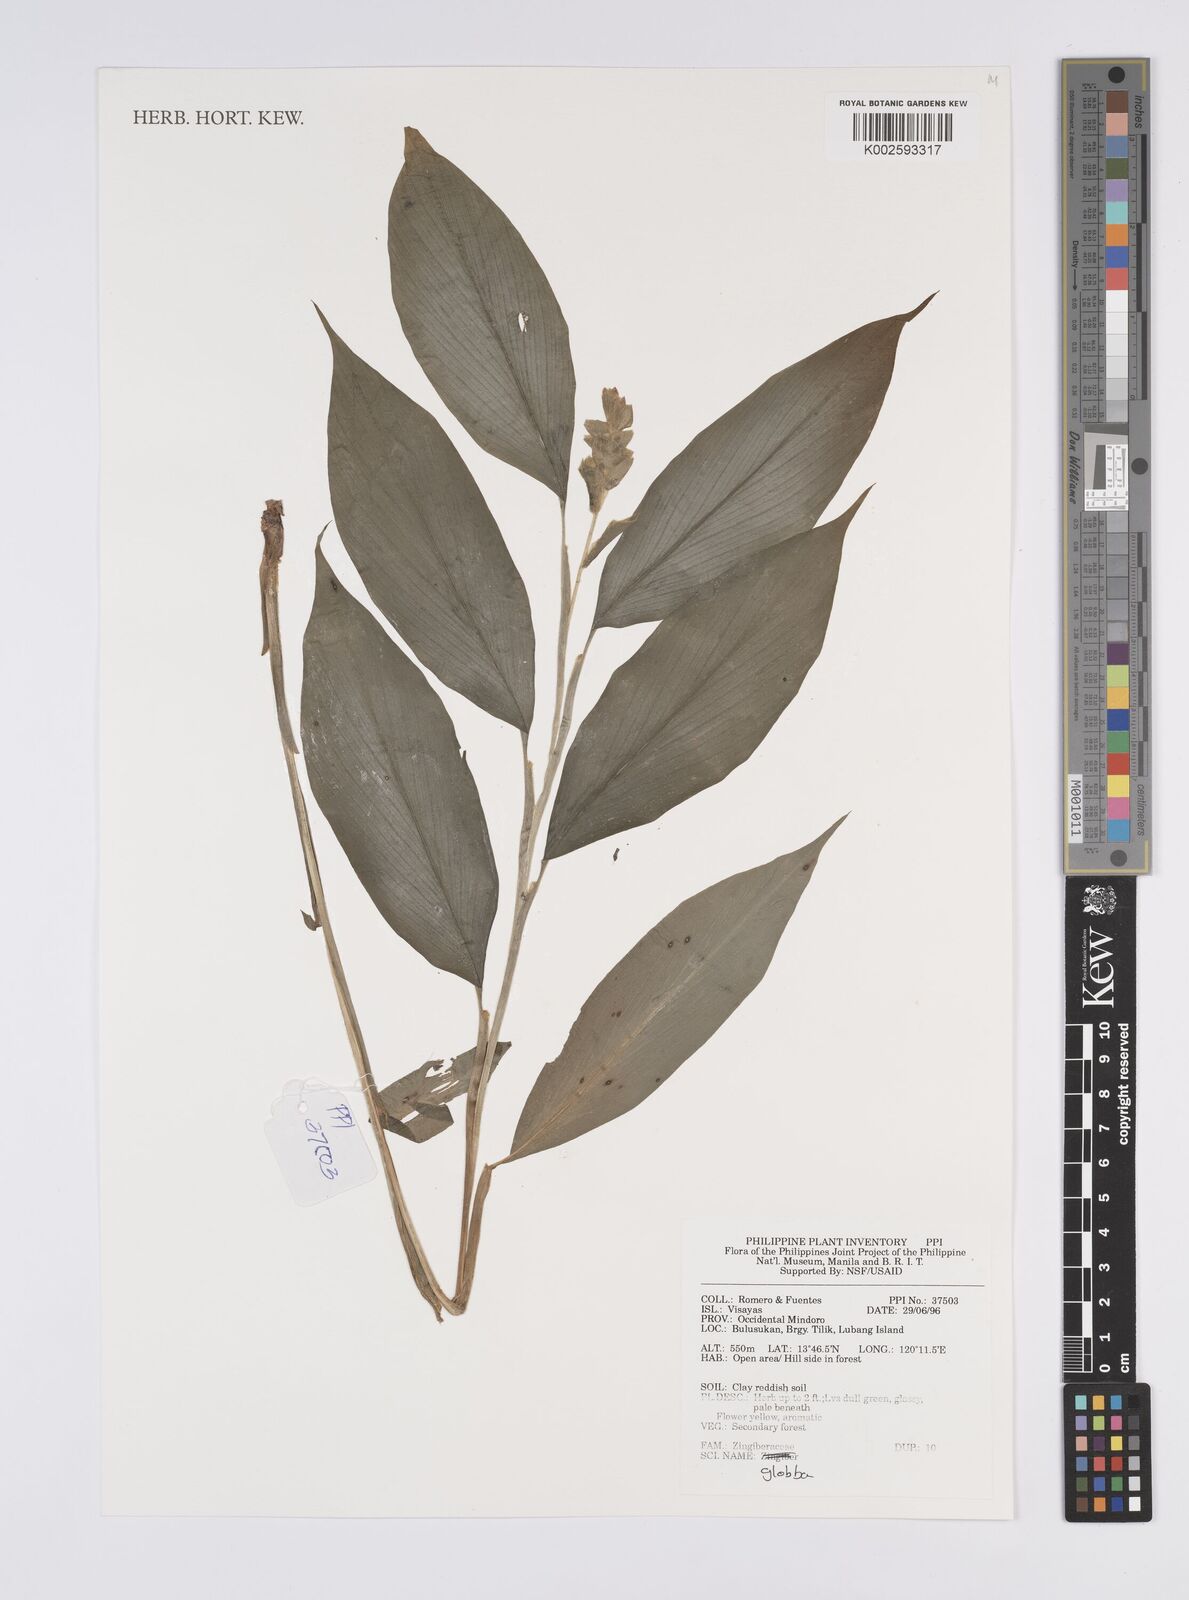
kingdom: Plantae
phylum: Tracheophyta
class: Liliopsida
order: Zingiberales
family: Zingiberaceae
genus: Globba
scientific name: Globba
